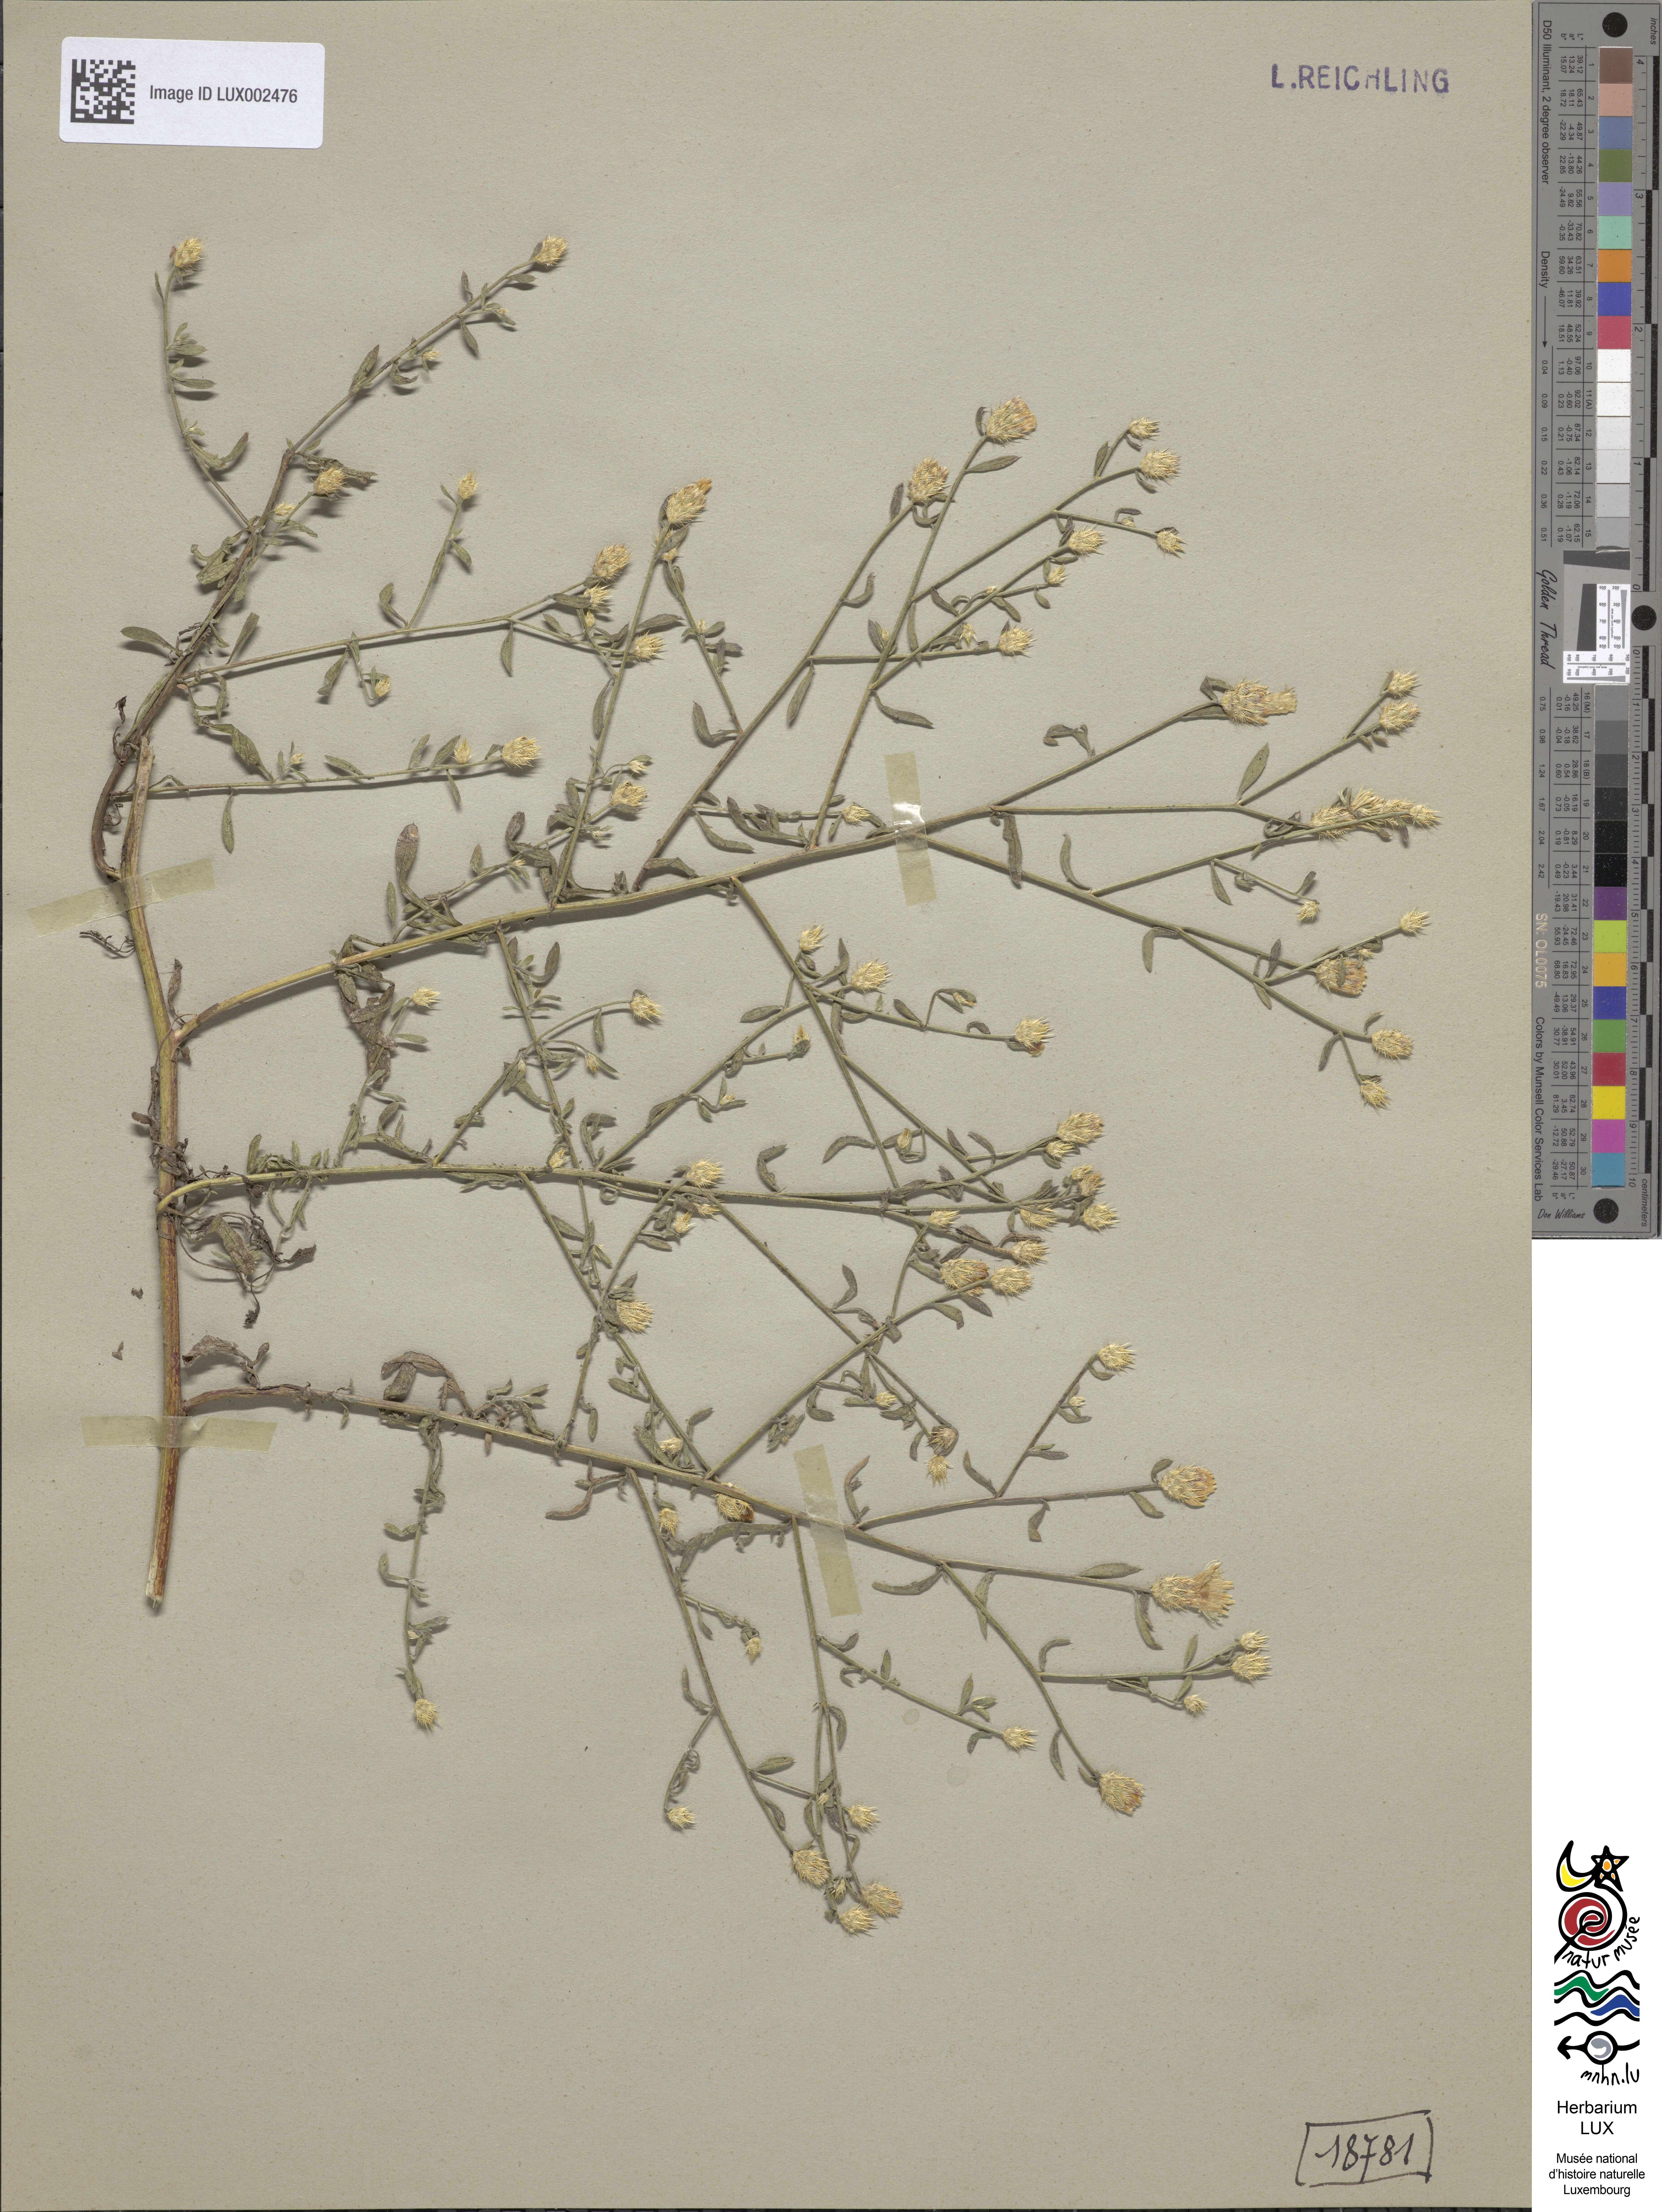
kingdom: Plantae
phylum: Tracheophyta
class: Magnoliopsida
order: Asterales
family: Asteraceae
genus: Centaurea
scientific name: Centaurea diffusa
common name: Diffuse knapweed
